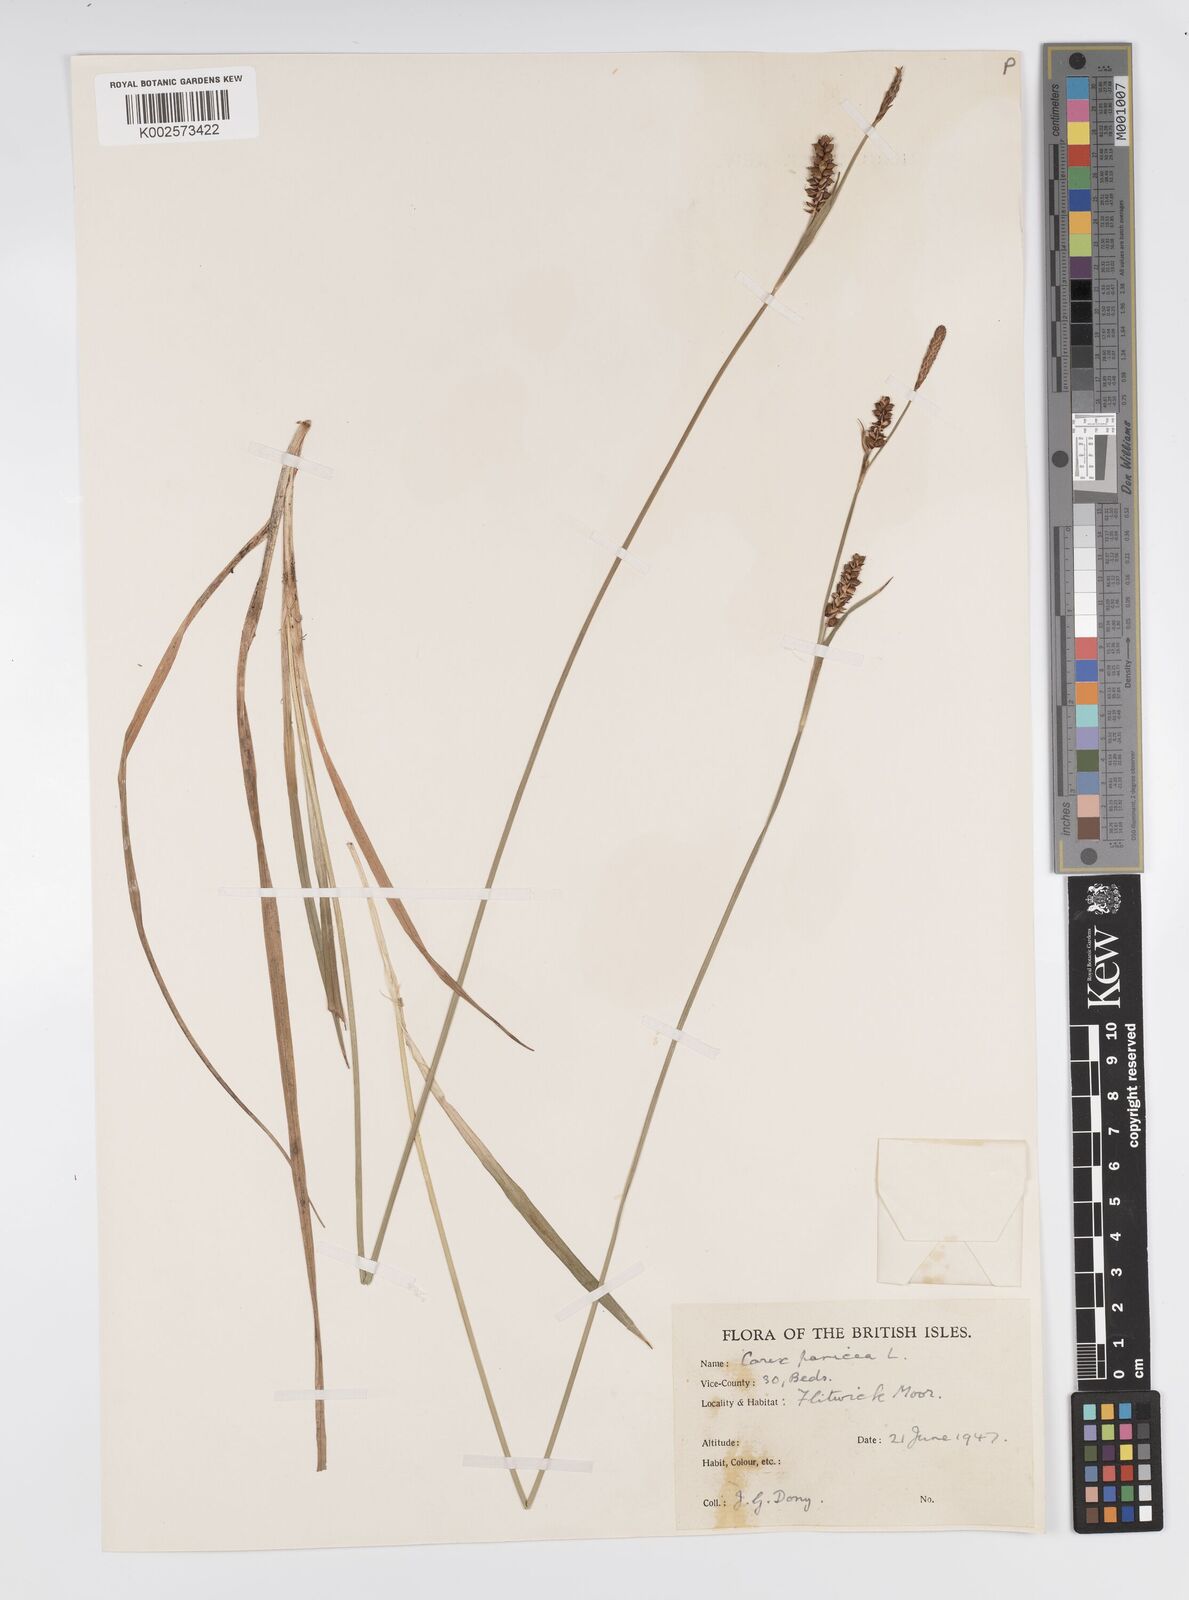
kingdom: Plantae
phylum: Tracheophyta
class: Liliopsida
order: Poales
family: Cyperaceae
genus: Carex
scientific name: Carex panicea
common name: Carnation sedge
